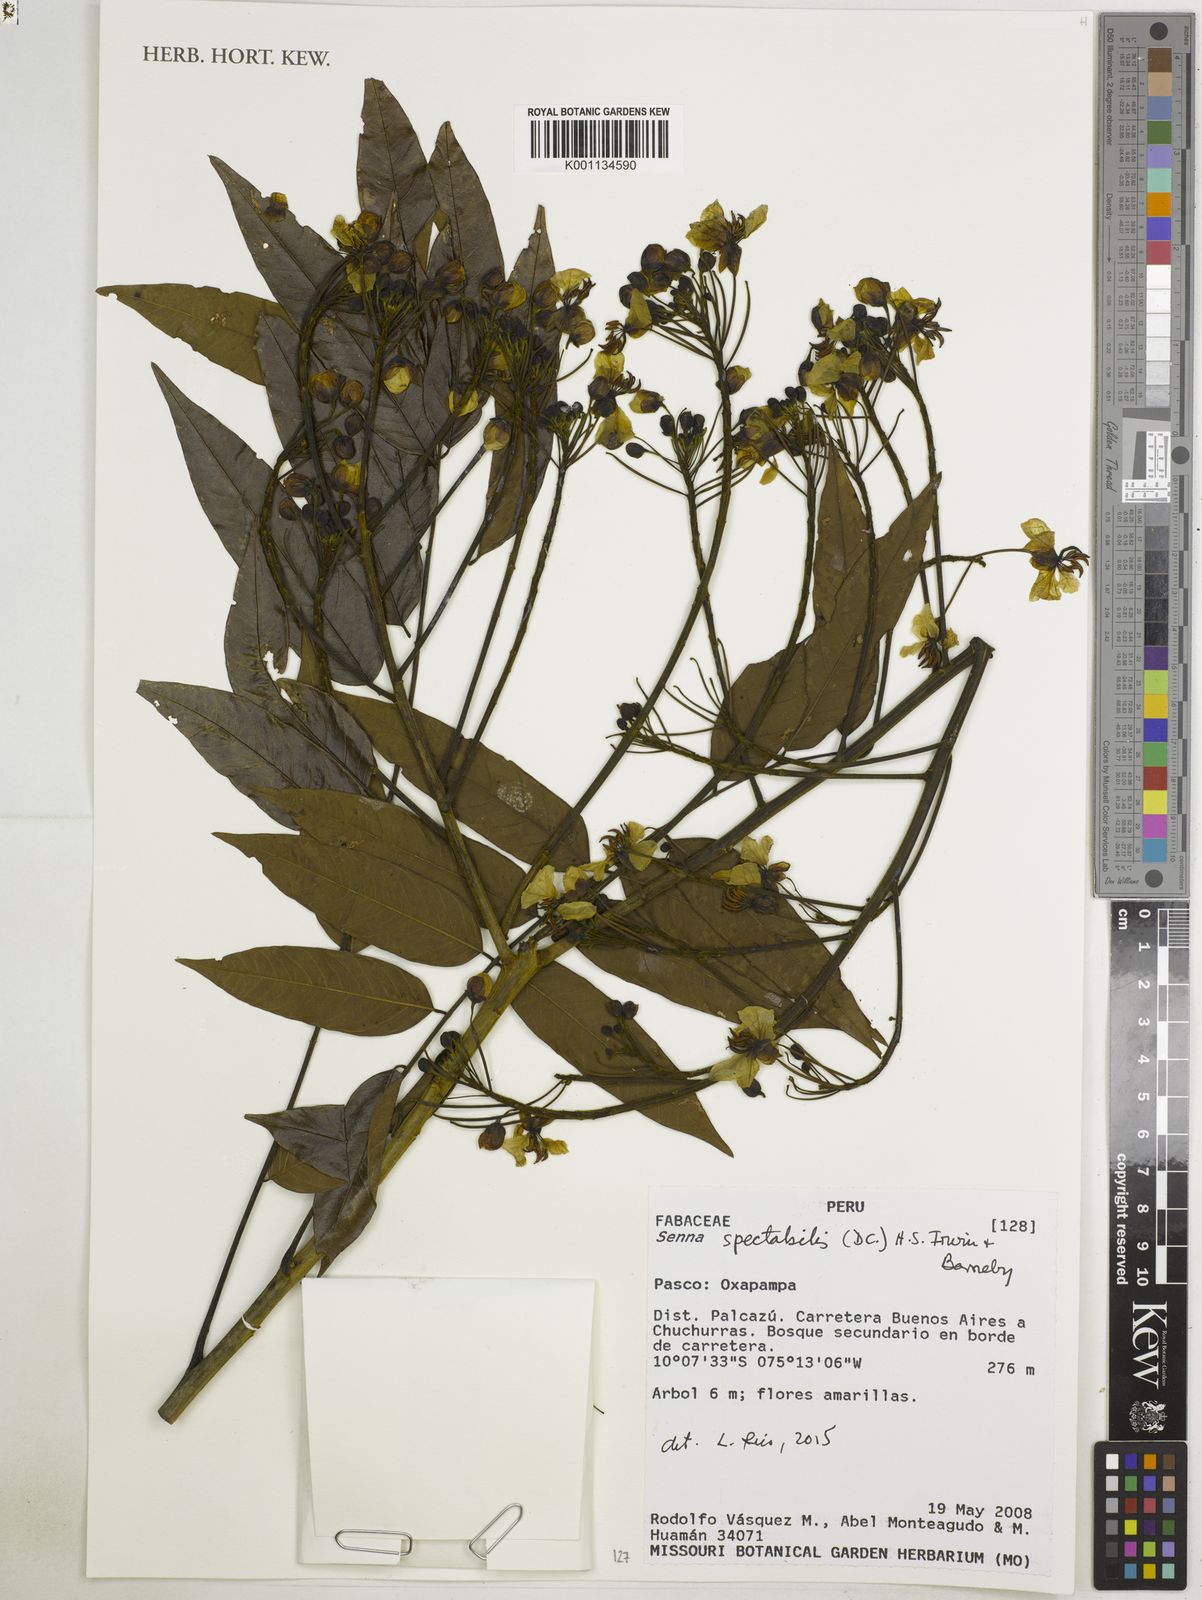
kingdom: Plantae
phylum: Tracheophyta
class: Magnoliopsida
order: Fabales
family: Fabaceae
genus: Senna
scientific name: Senna spectabilis
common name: Casia amarilla
